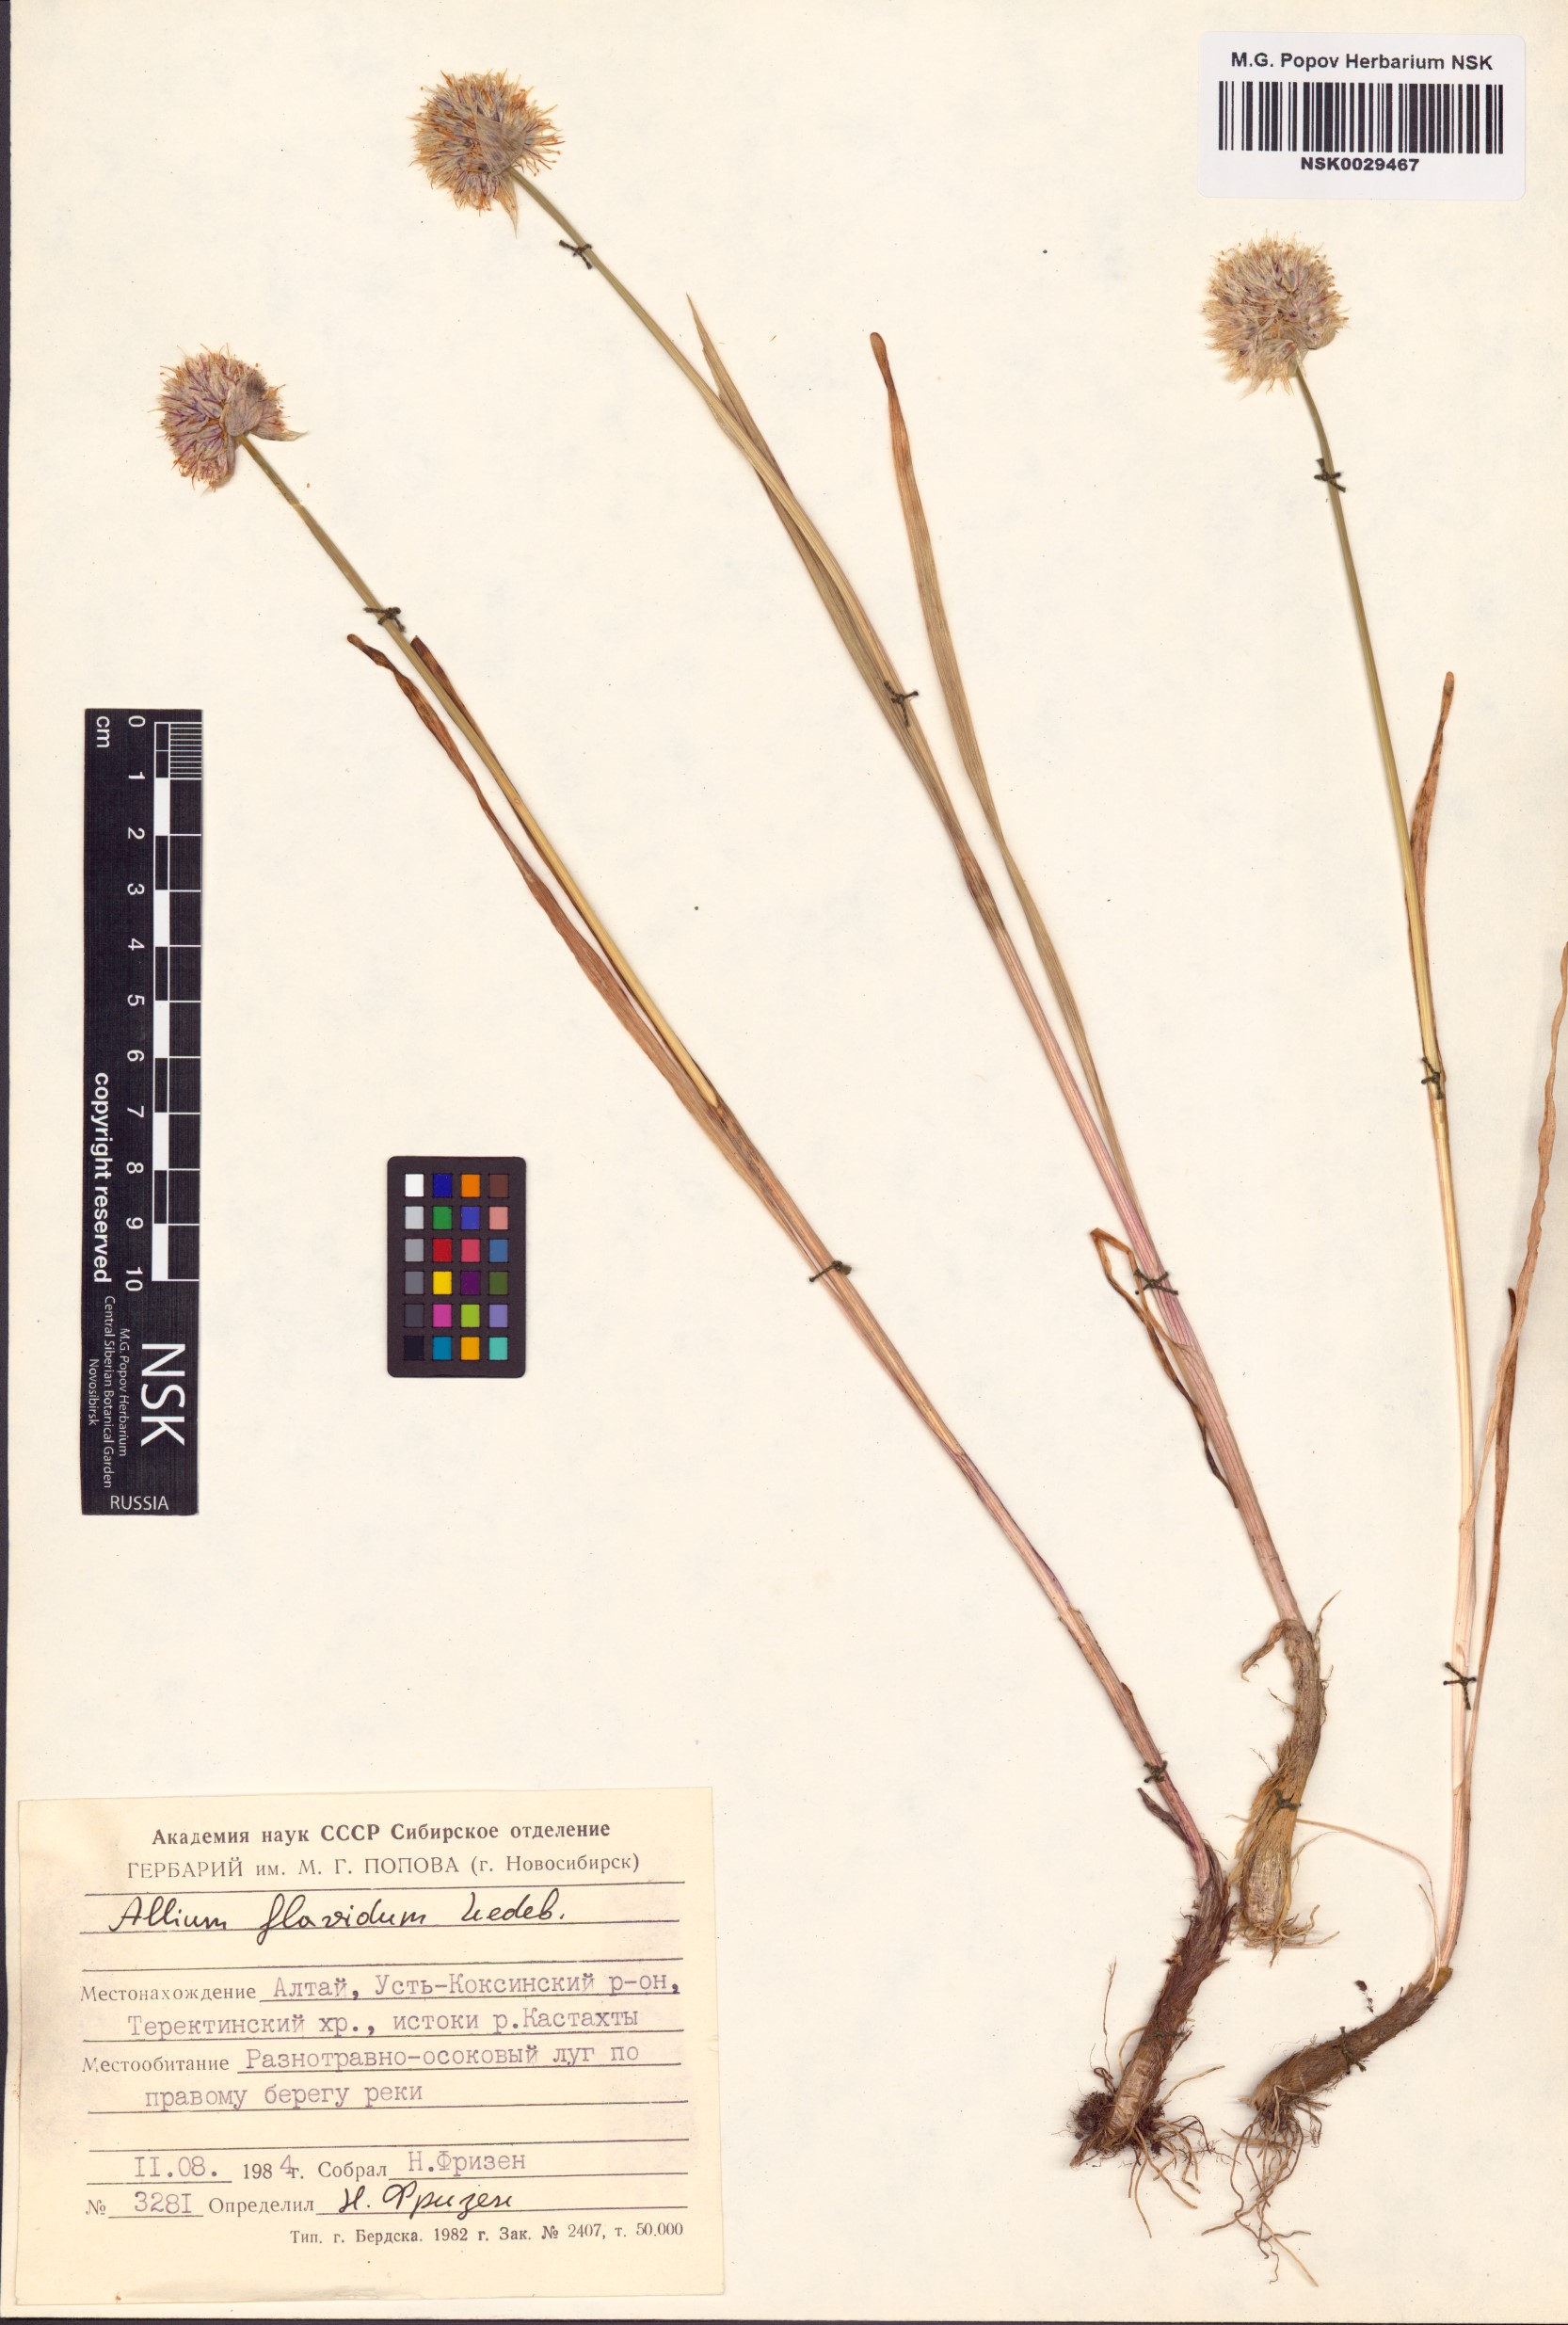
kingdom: Plantae
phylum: Tracheophyta
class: Liliopsida
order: Asparagales
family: Amaryllidaceae
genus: Allium
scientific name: Allium flavidum
